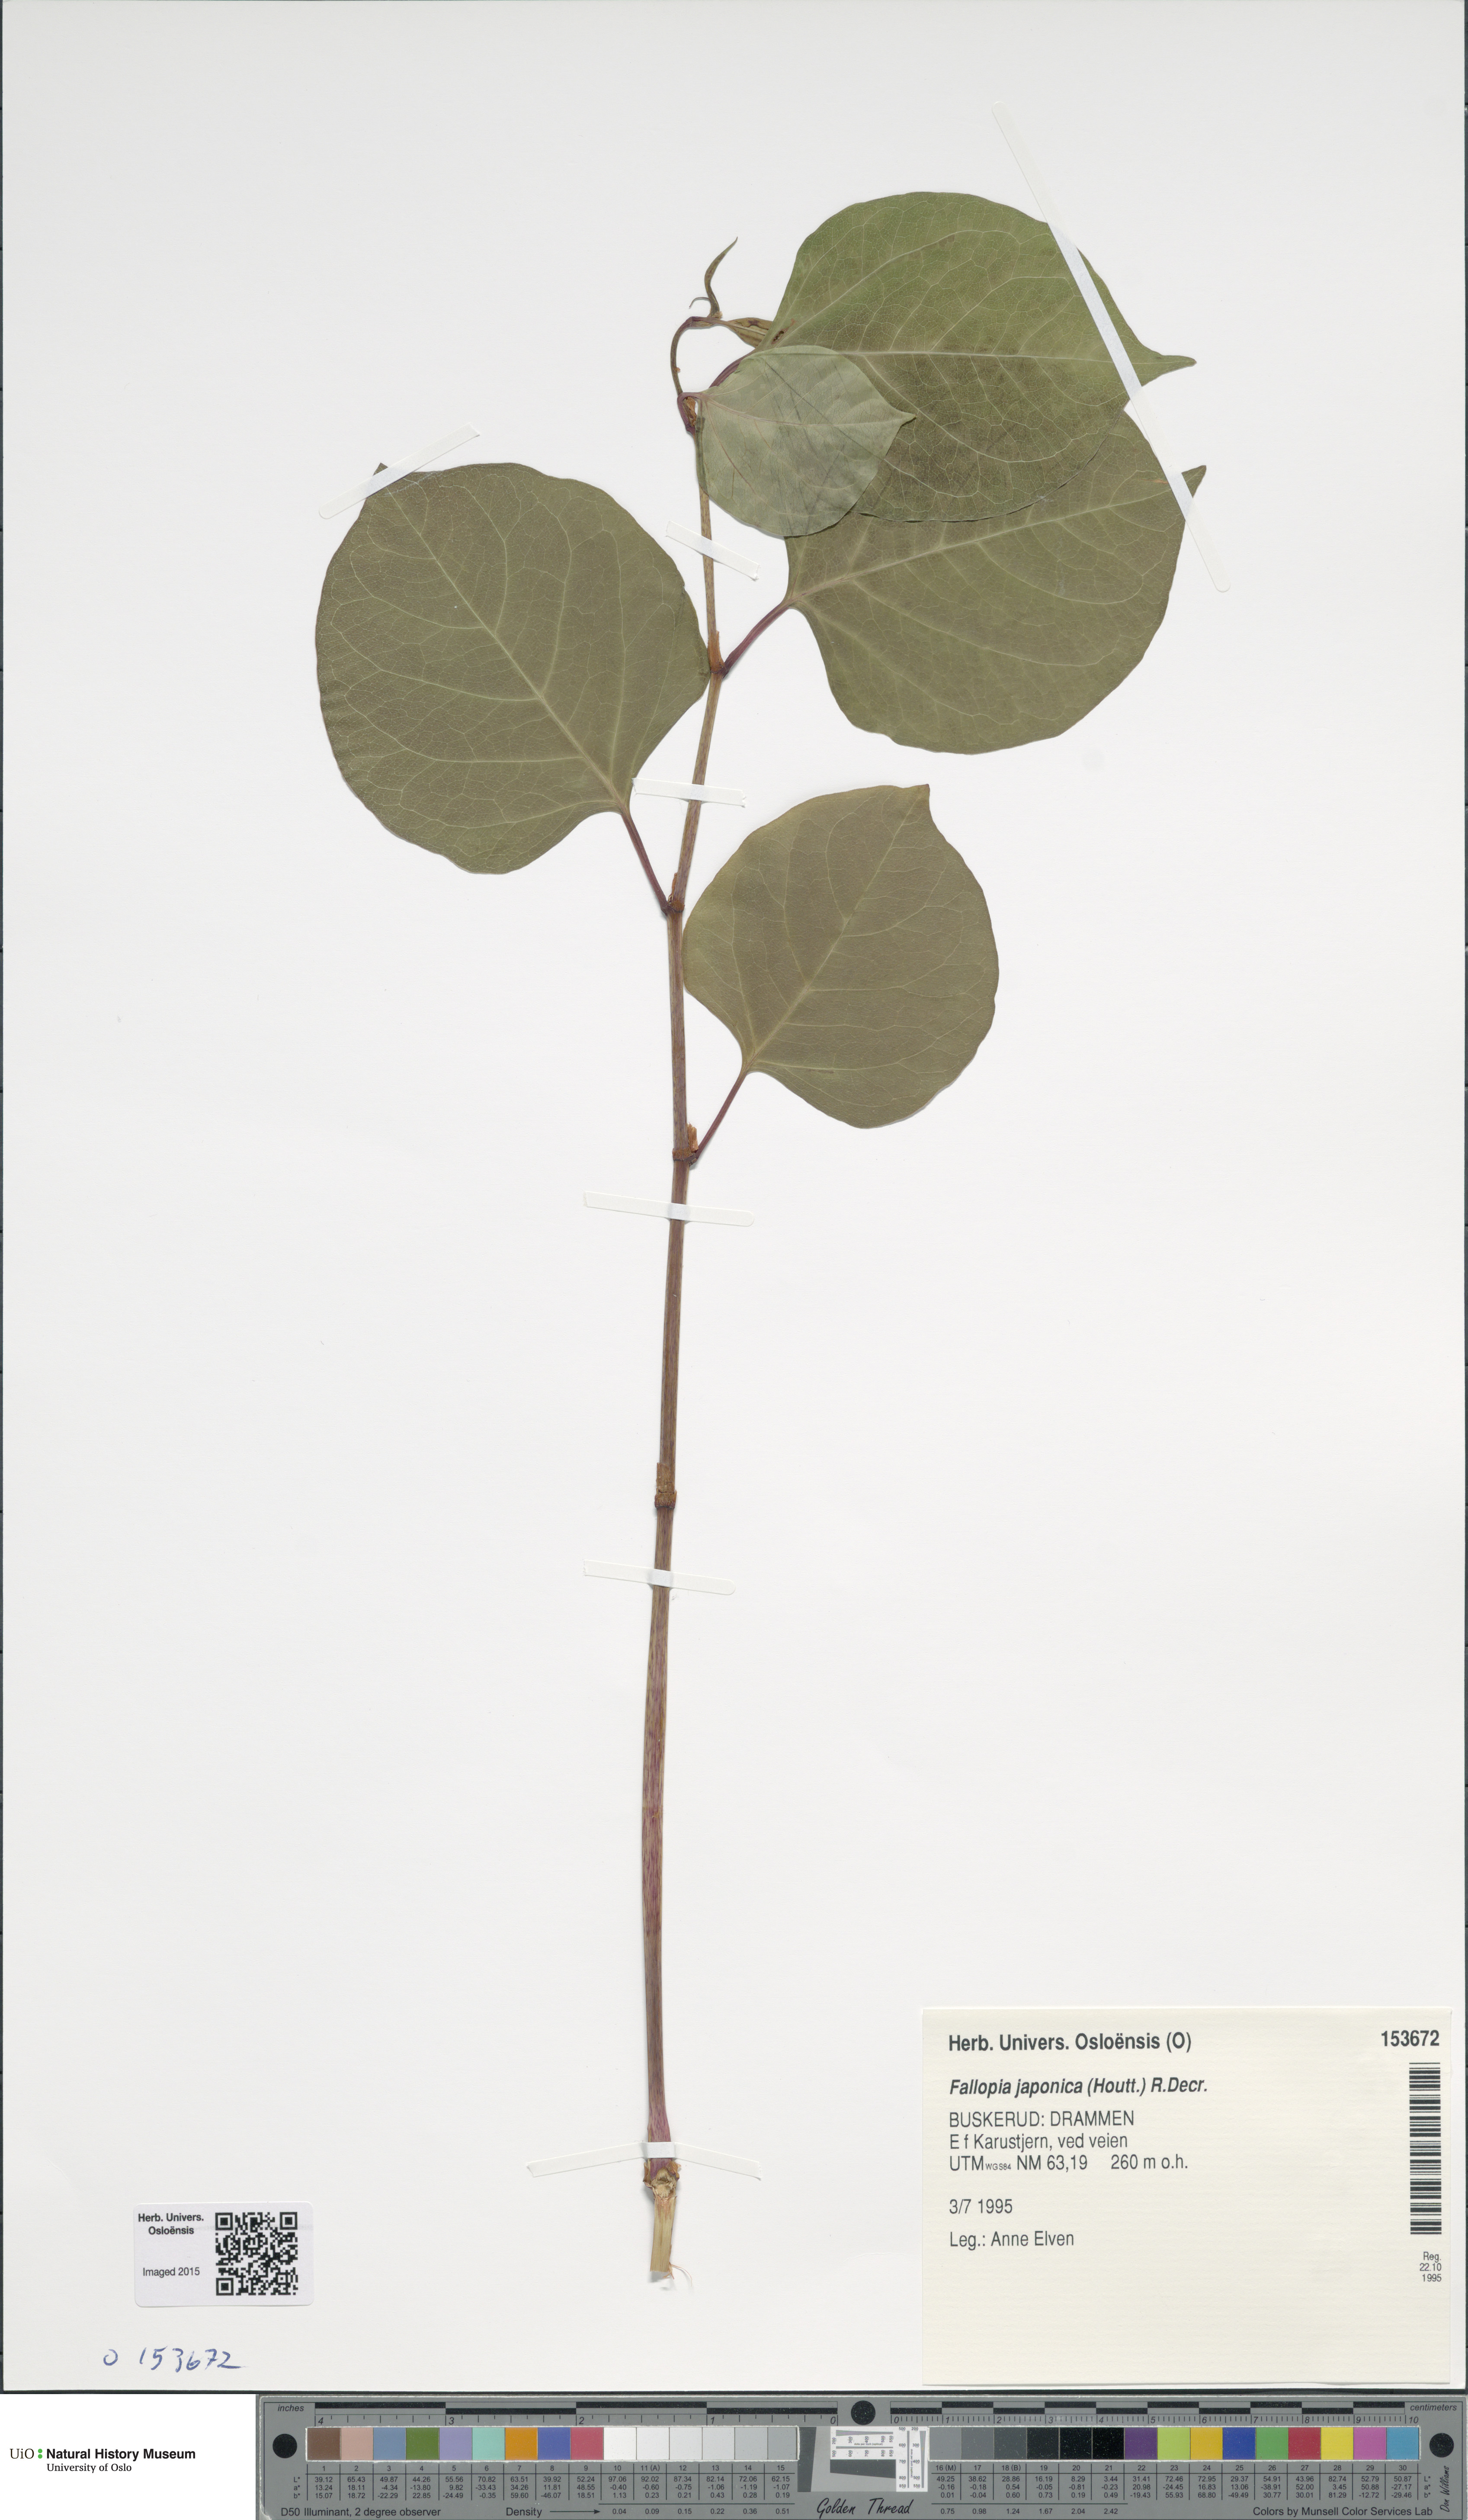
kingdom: Plantae
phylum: Tracheophyta
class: Magnoliopsida
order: Caryophyllales
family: Polygonaceae
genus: Reynoutria
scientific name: Reynoutria japonica
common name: Japanese knotweed
